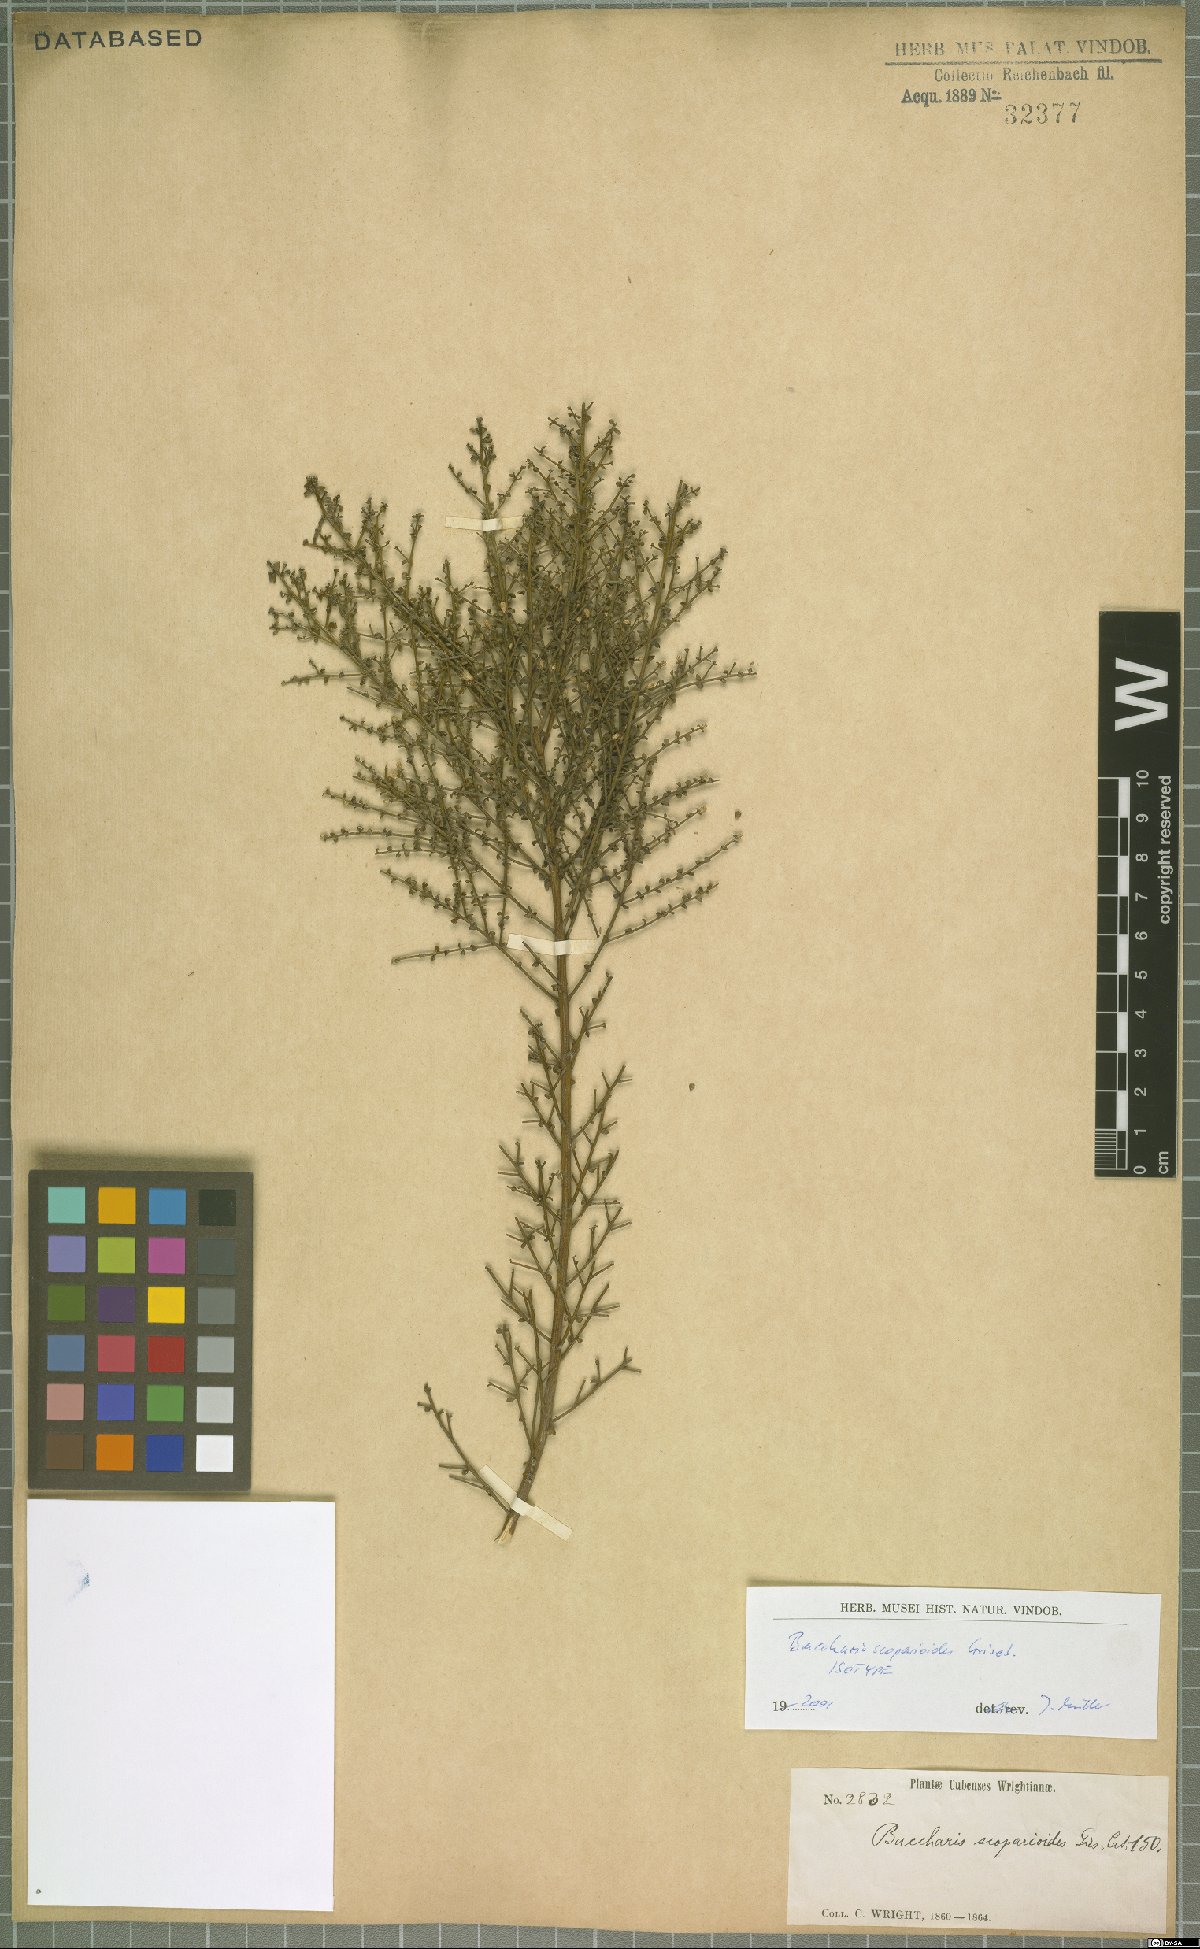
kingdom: Plantae
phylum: Tracheophyta
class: Magnoliopsida
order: Asterales
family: Asteraceae
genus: Baccharis
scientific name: Baccharis scoparioides
